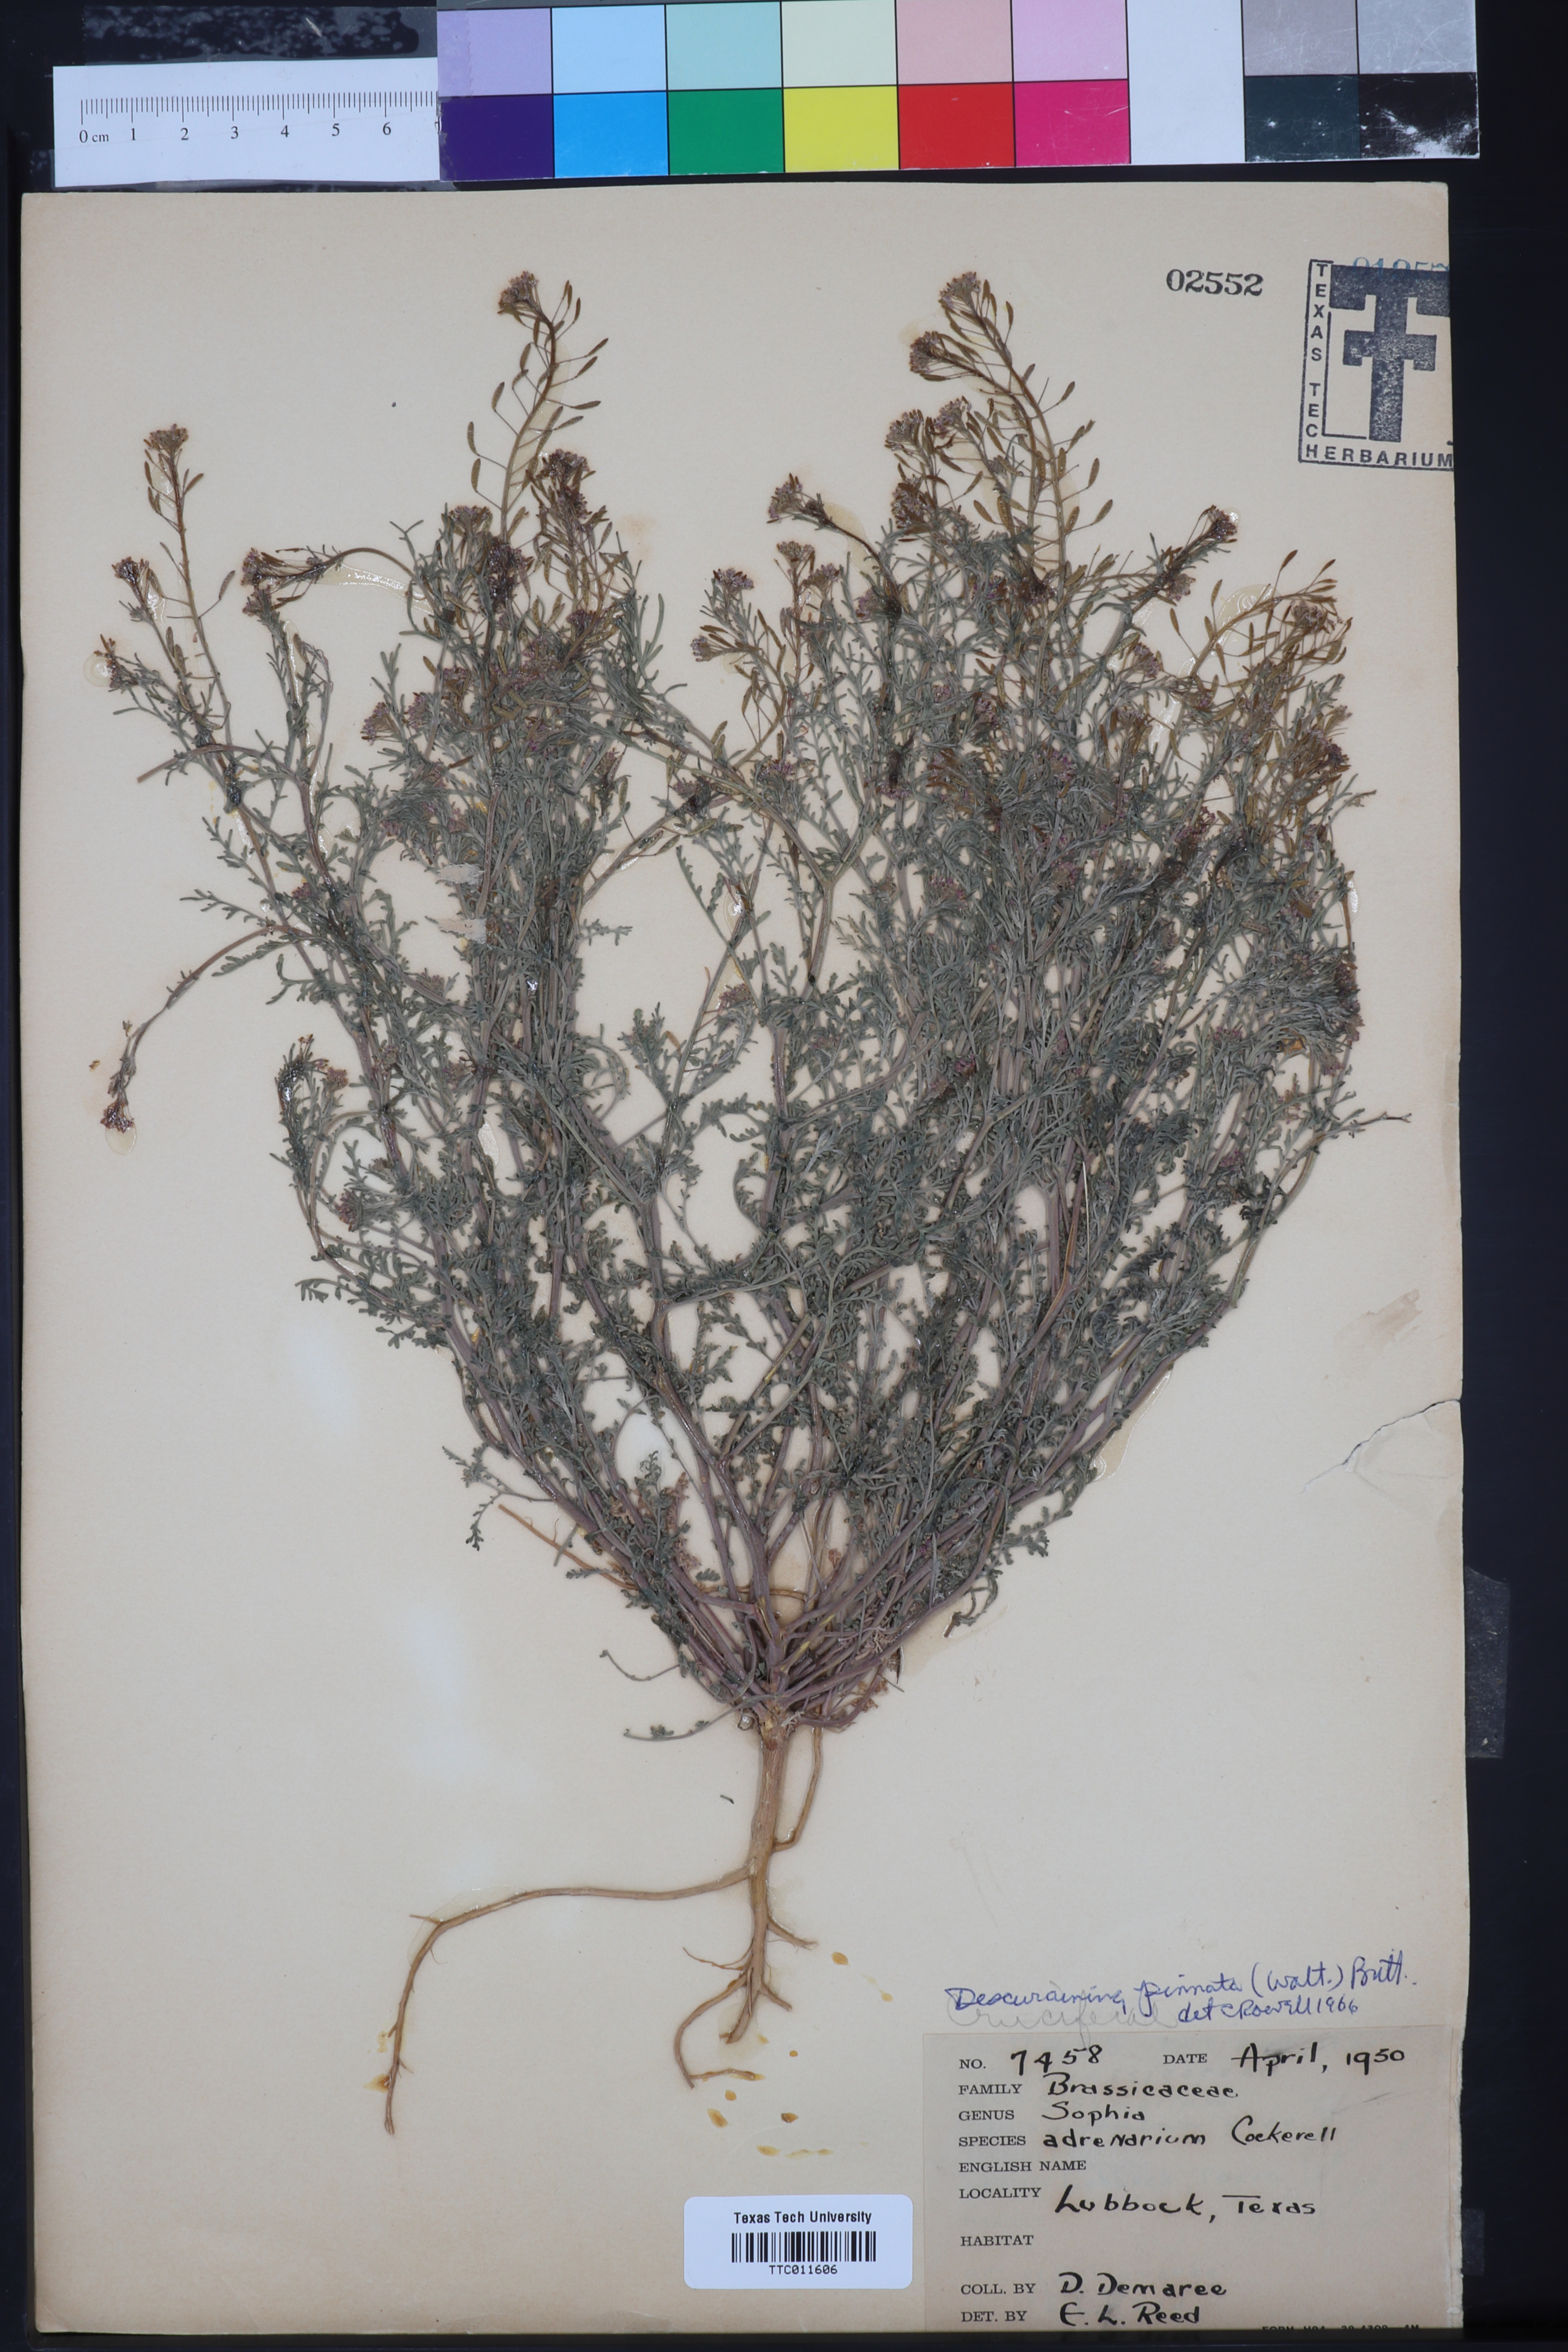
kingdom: Plantae
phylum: Tracheophyta
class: Magnoliopsida
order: Brassicales
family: Brassicaceae
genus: Descurainia
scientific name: Descurainia pinnata
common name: Western tansy mustard
